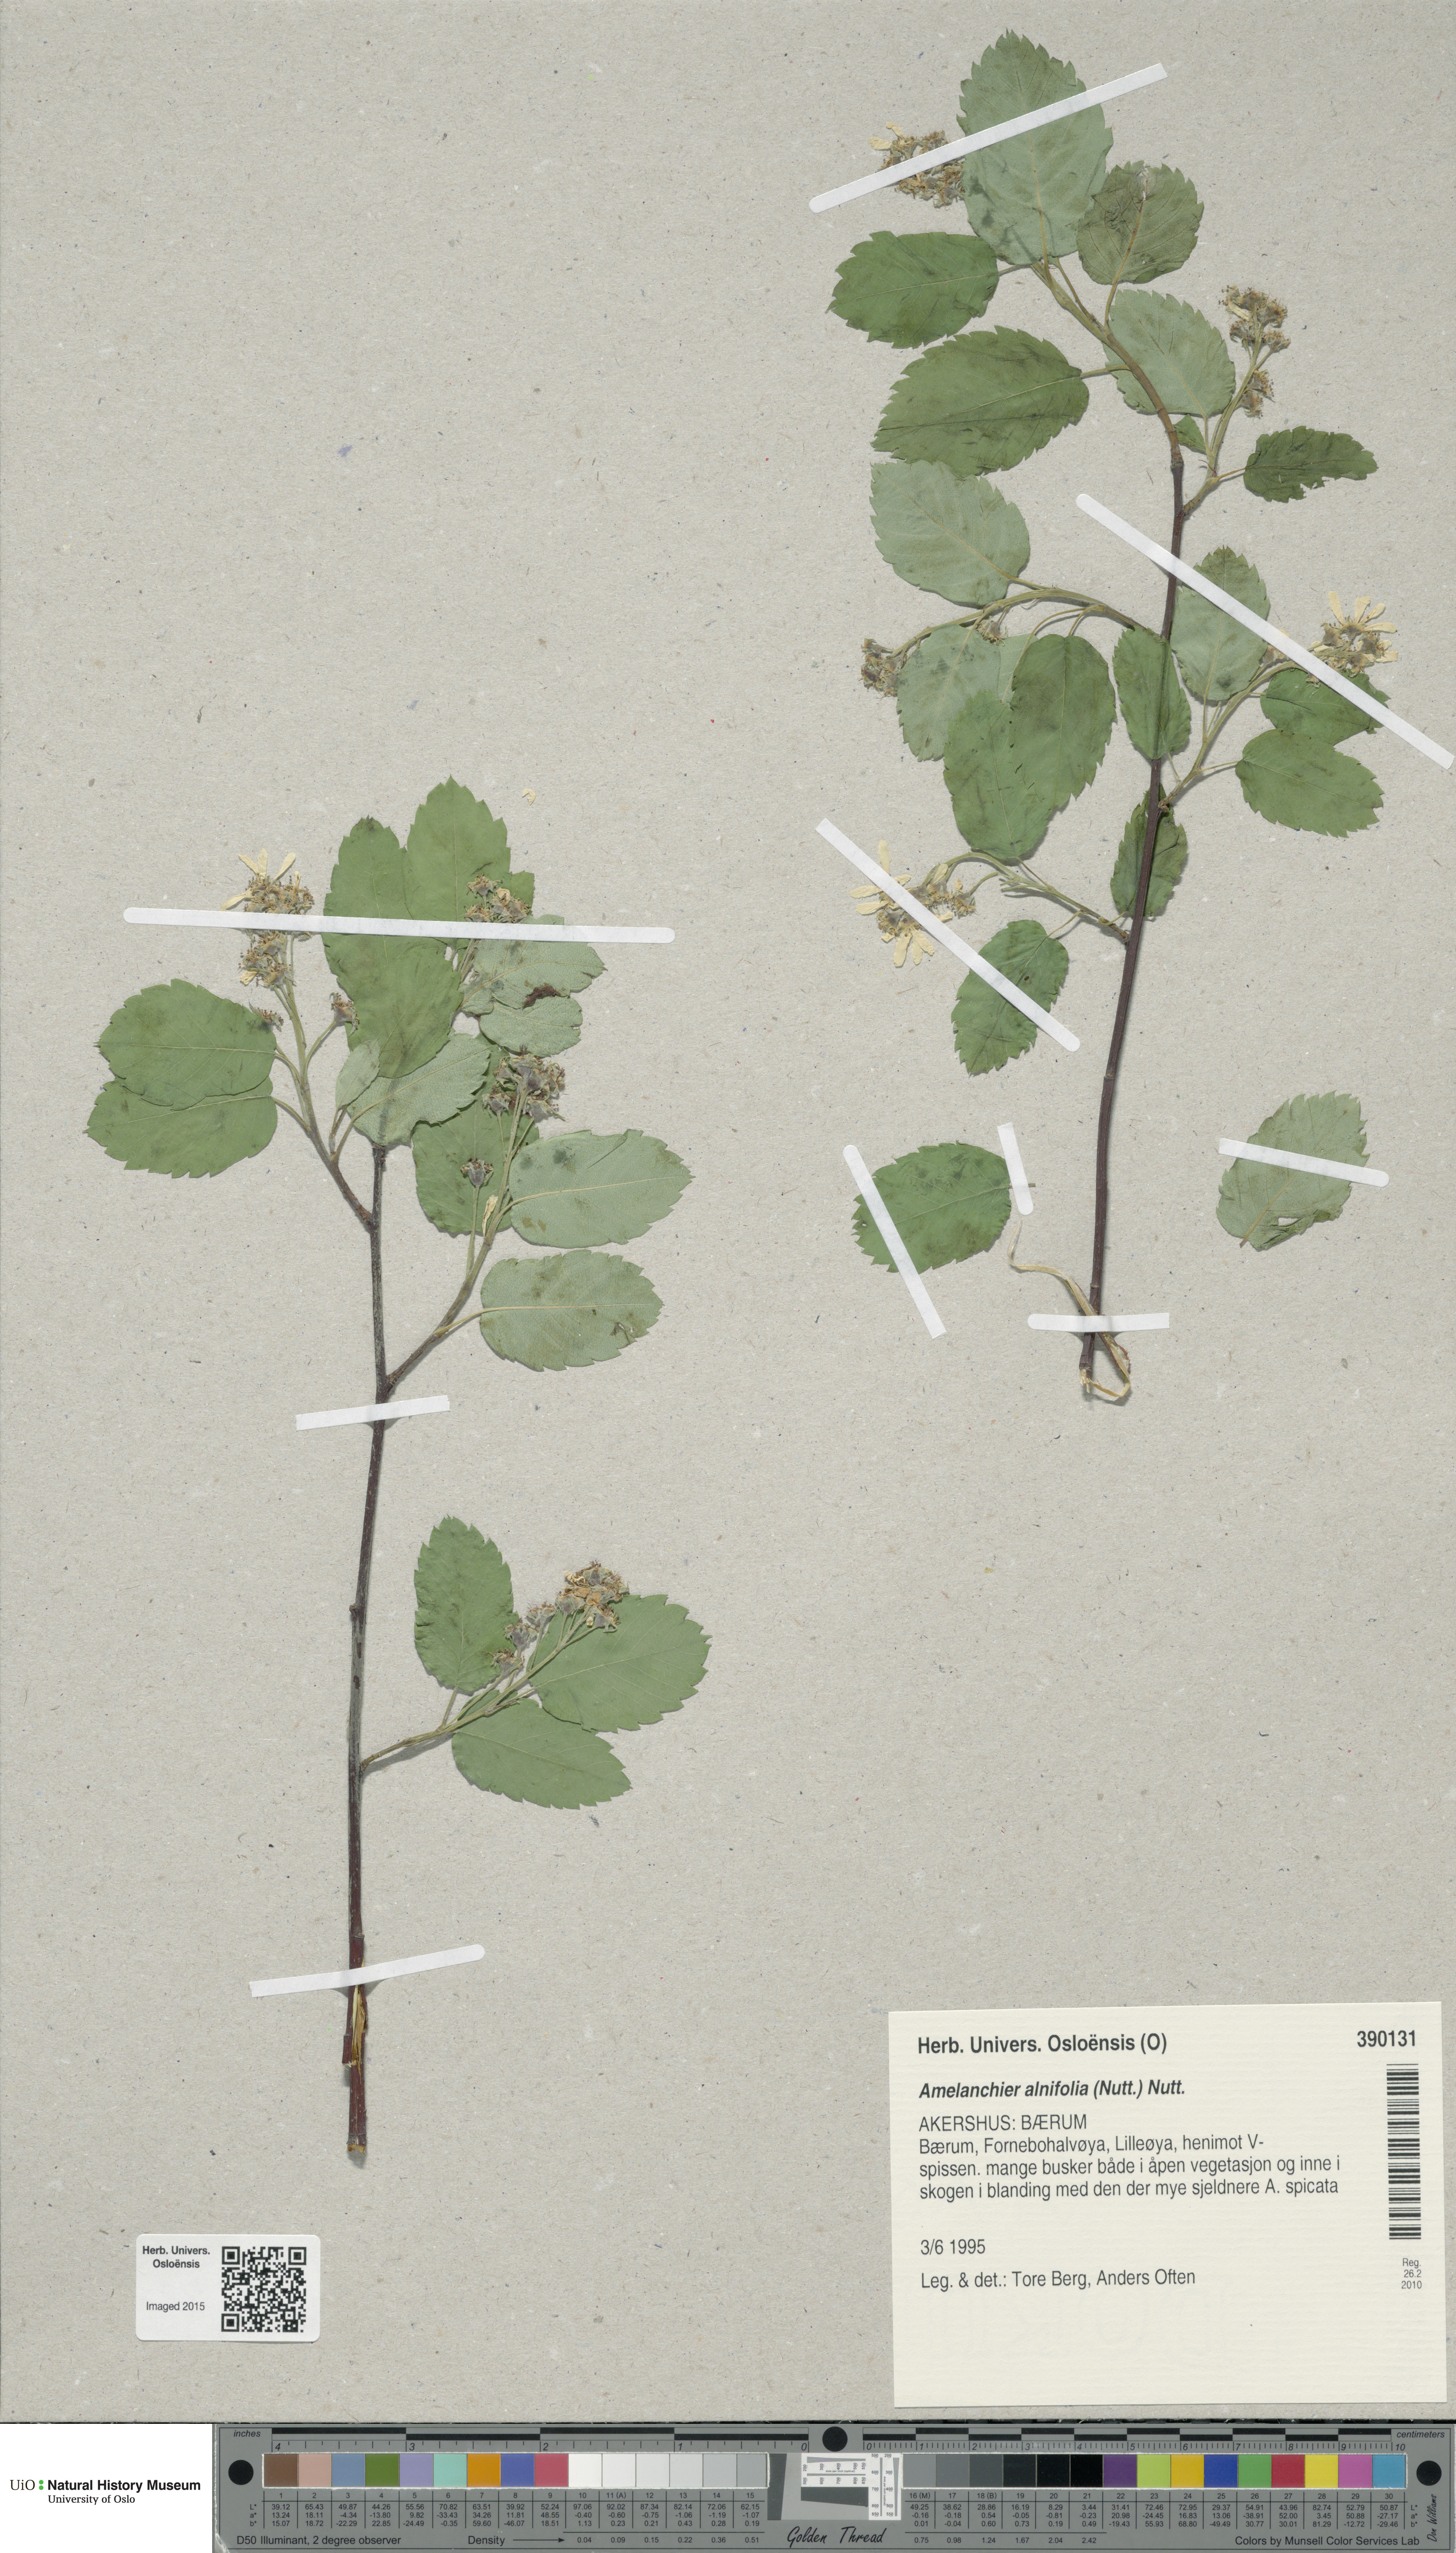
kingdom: Plantae
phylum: Tracheophyta
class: Magnoliopsida
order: Rosales
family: Rosaceae
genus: Amelanchier
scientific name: Amelanchier alnifolia
